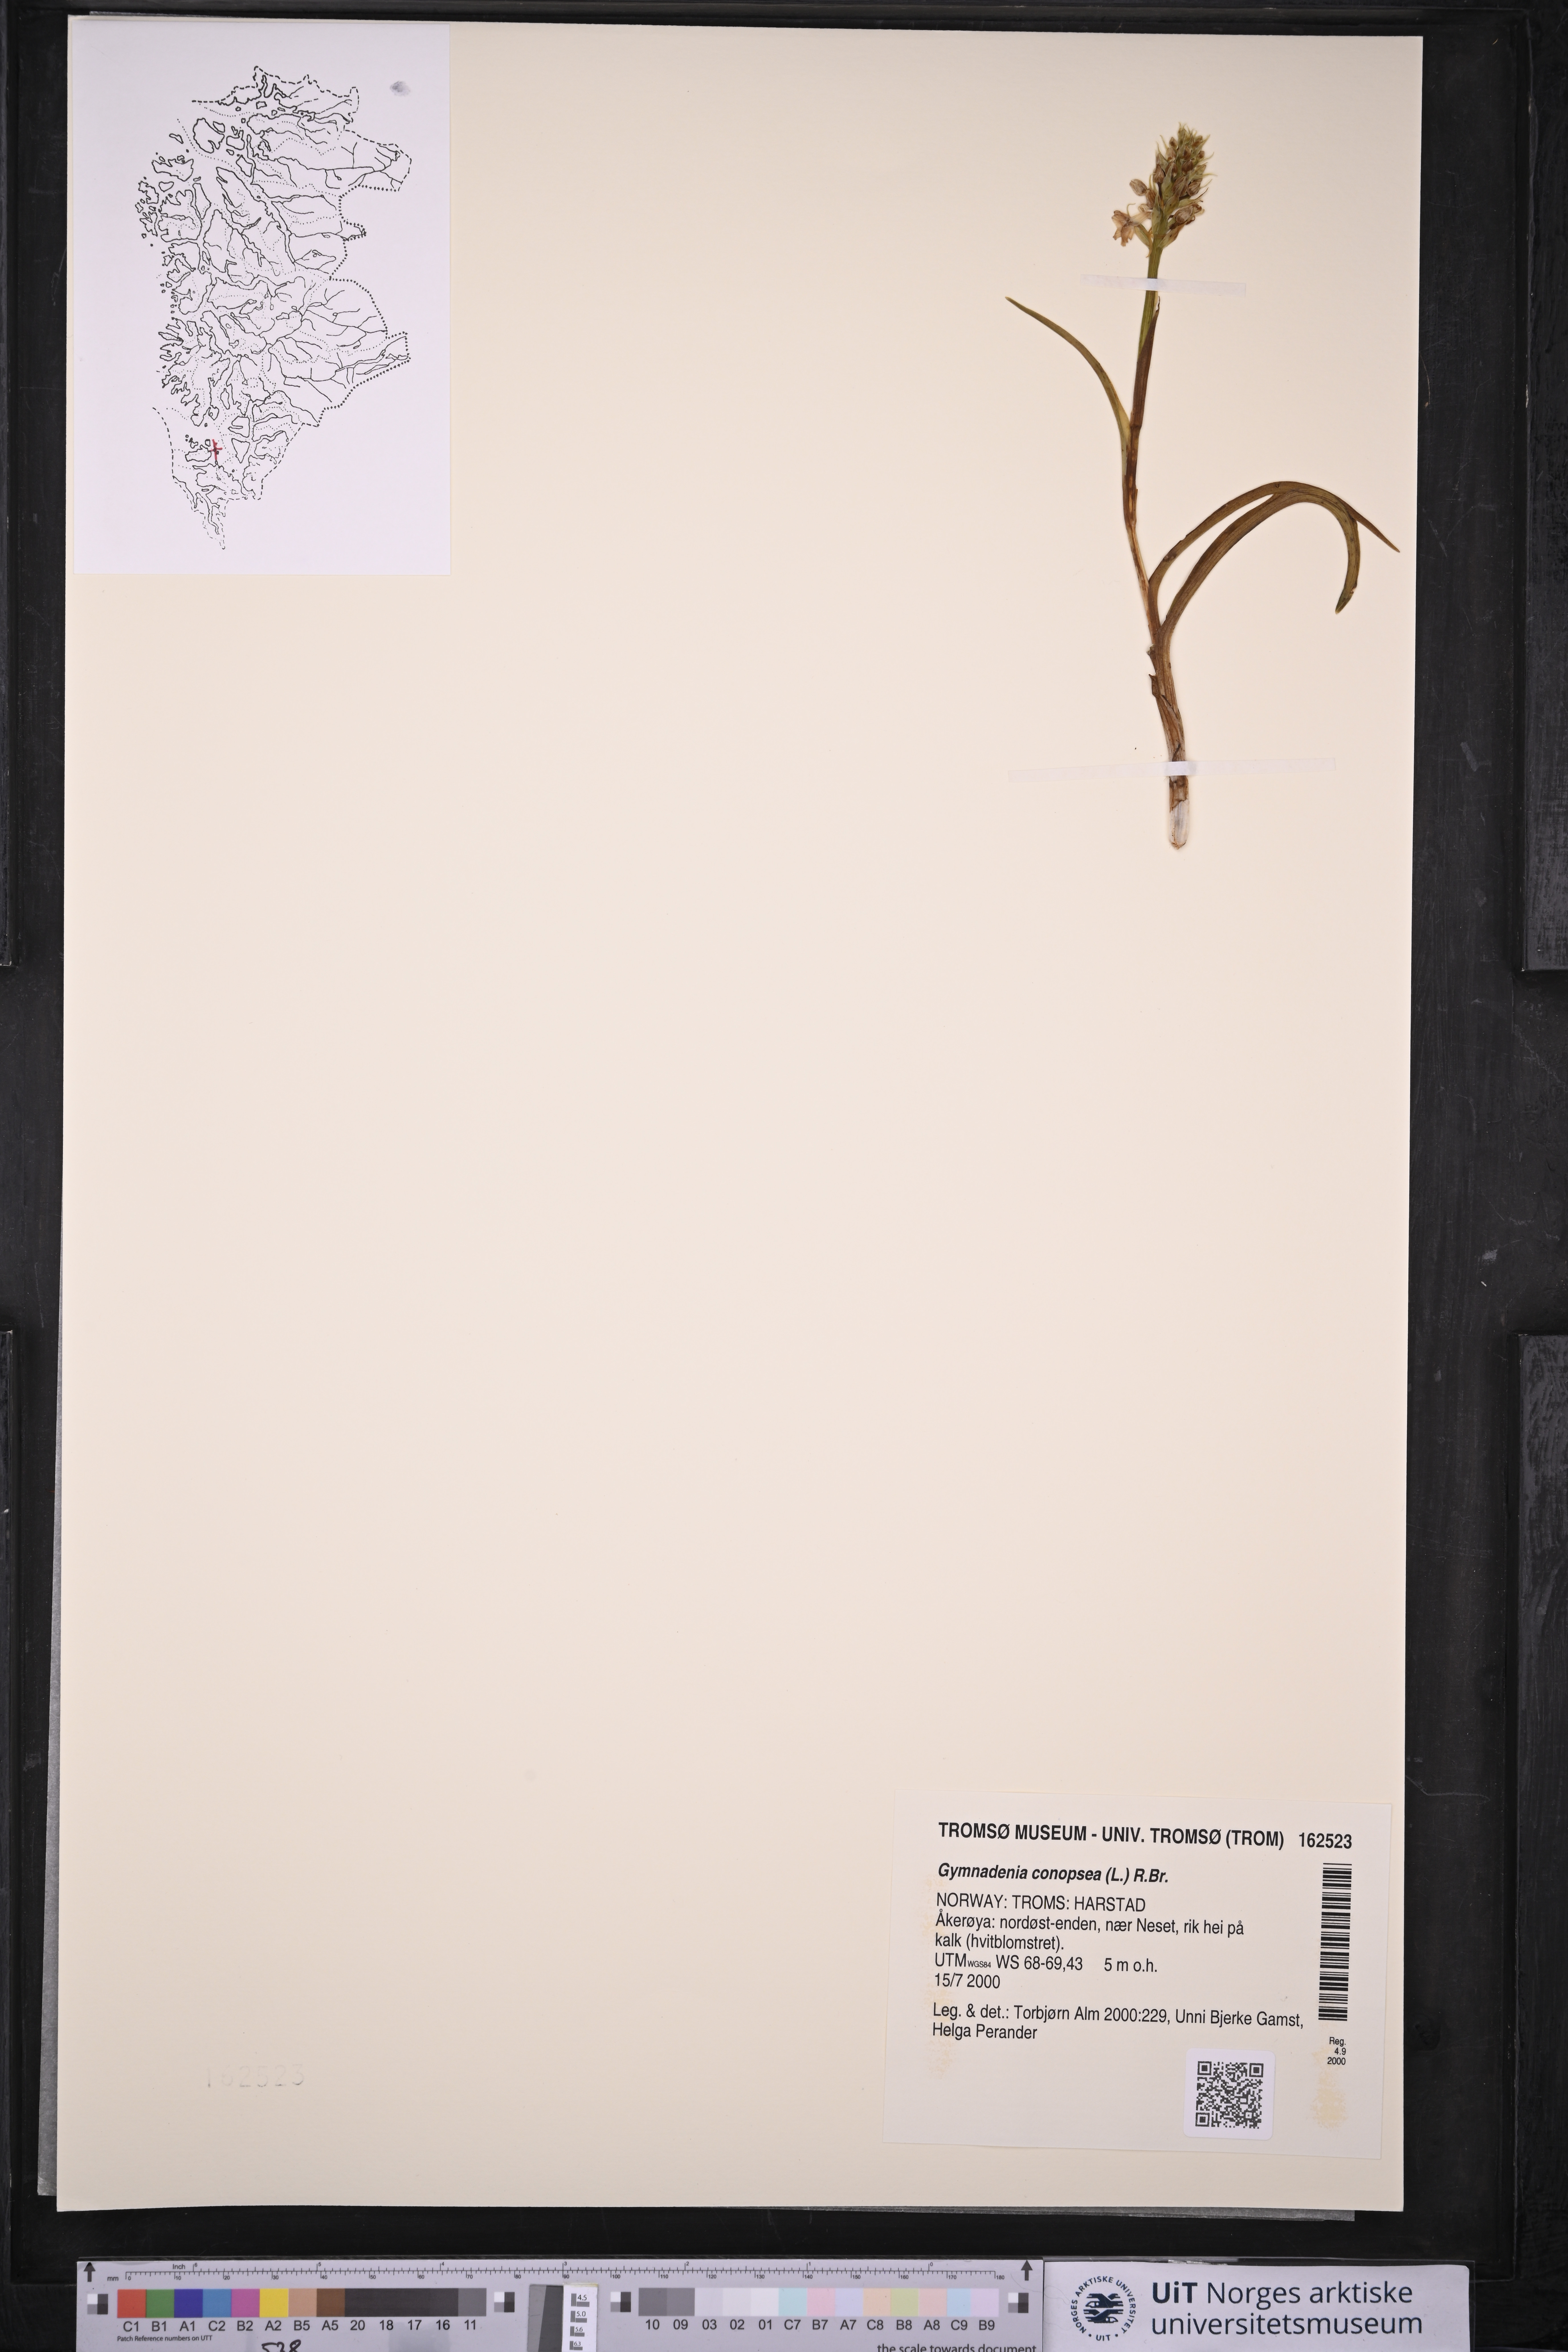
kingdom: Plantae
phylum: Tracheophyta
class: Liliopsida
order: Asparagales
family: Orchidaceae
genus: Gymnadenia
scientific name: Gymnadenia conopsea
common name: Fragrant orchid
